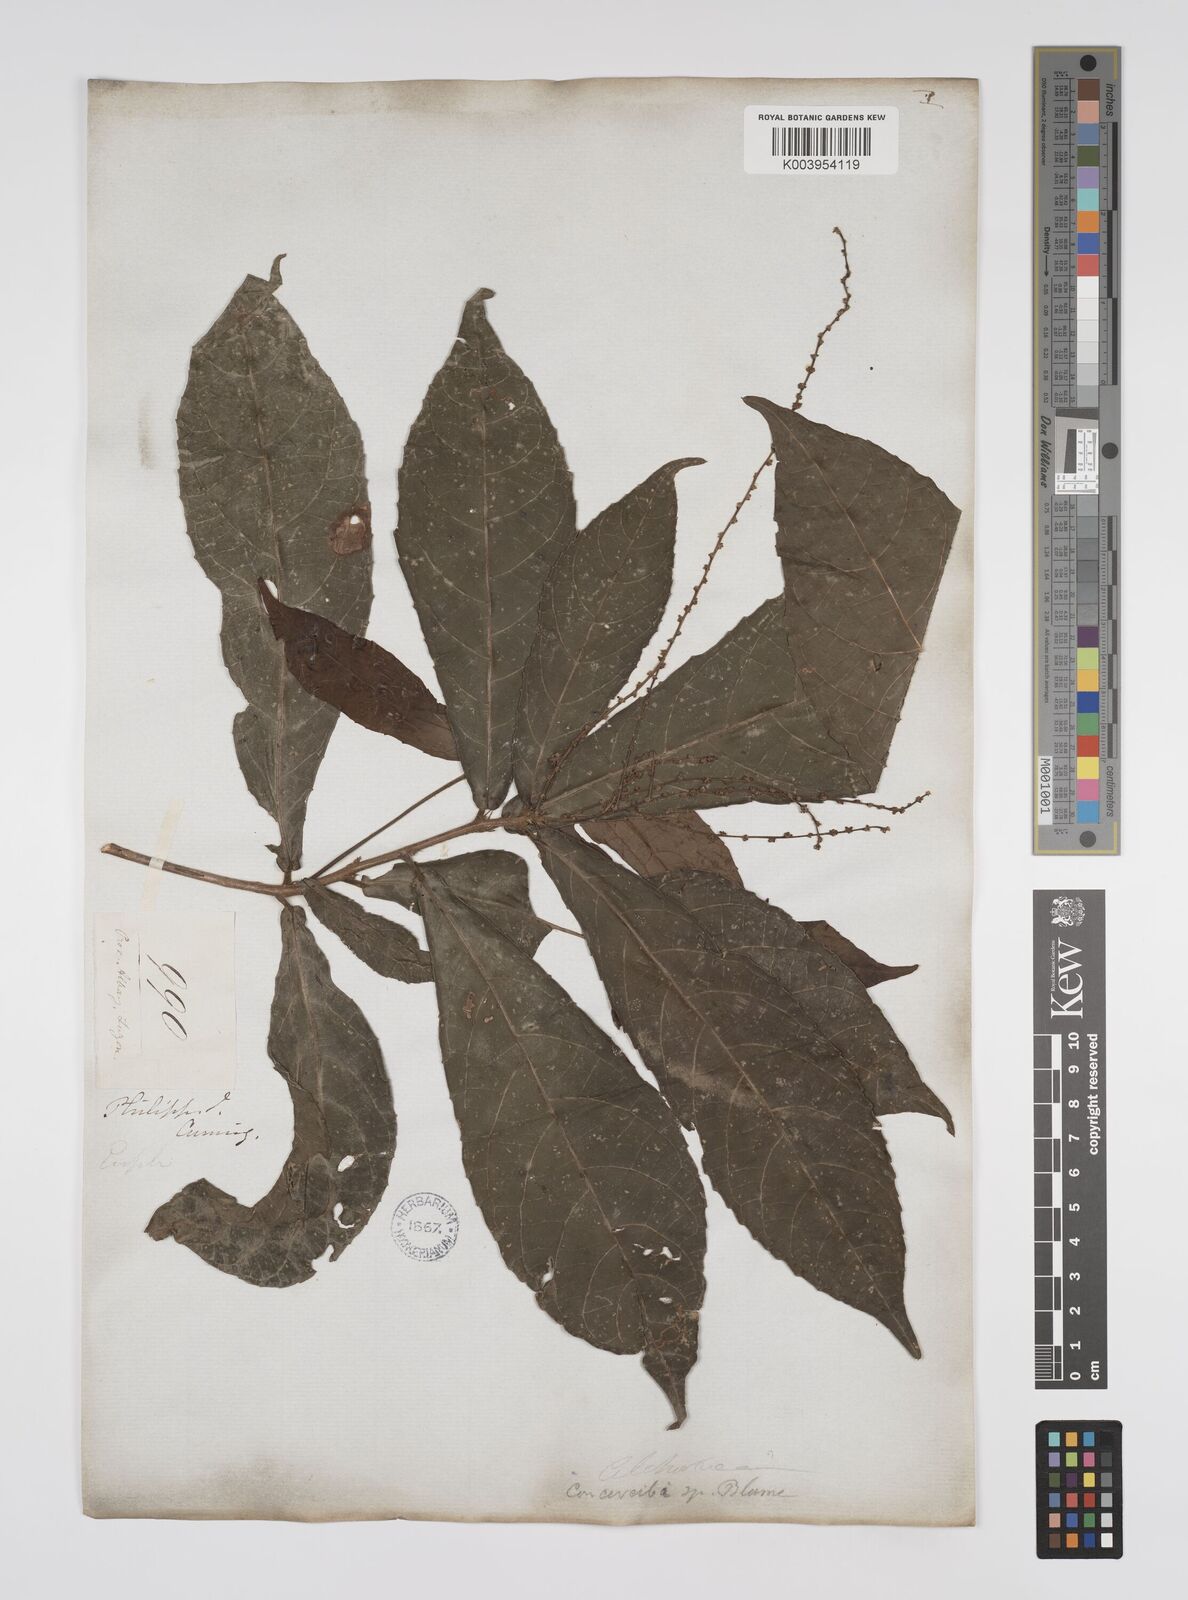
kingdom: Plantae
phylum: Tracheophyta
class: Magnoliopsida
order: Malpighiales
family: Euphorbiaceae
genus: Alchornea
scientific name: Alchornea rugosa
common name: Alchorntree
